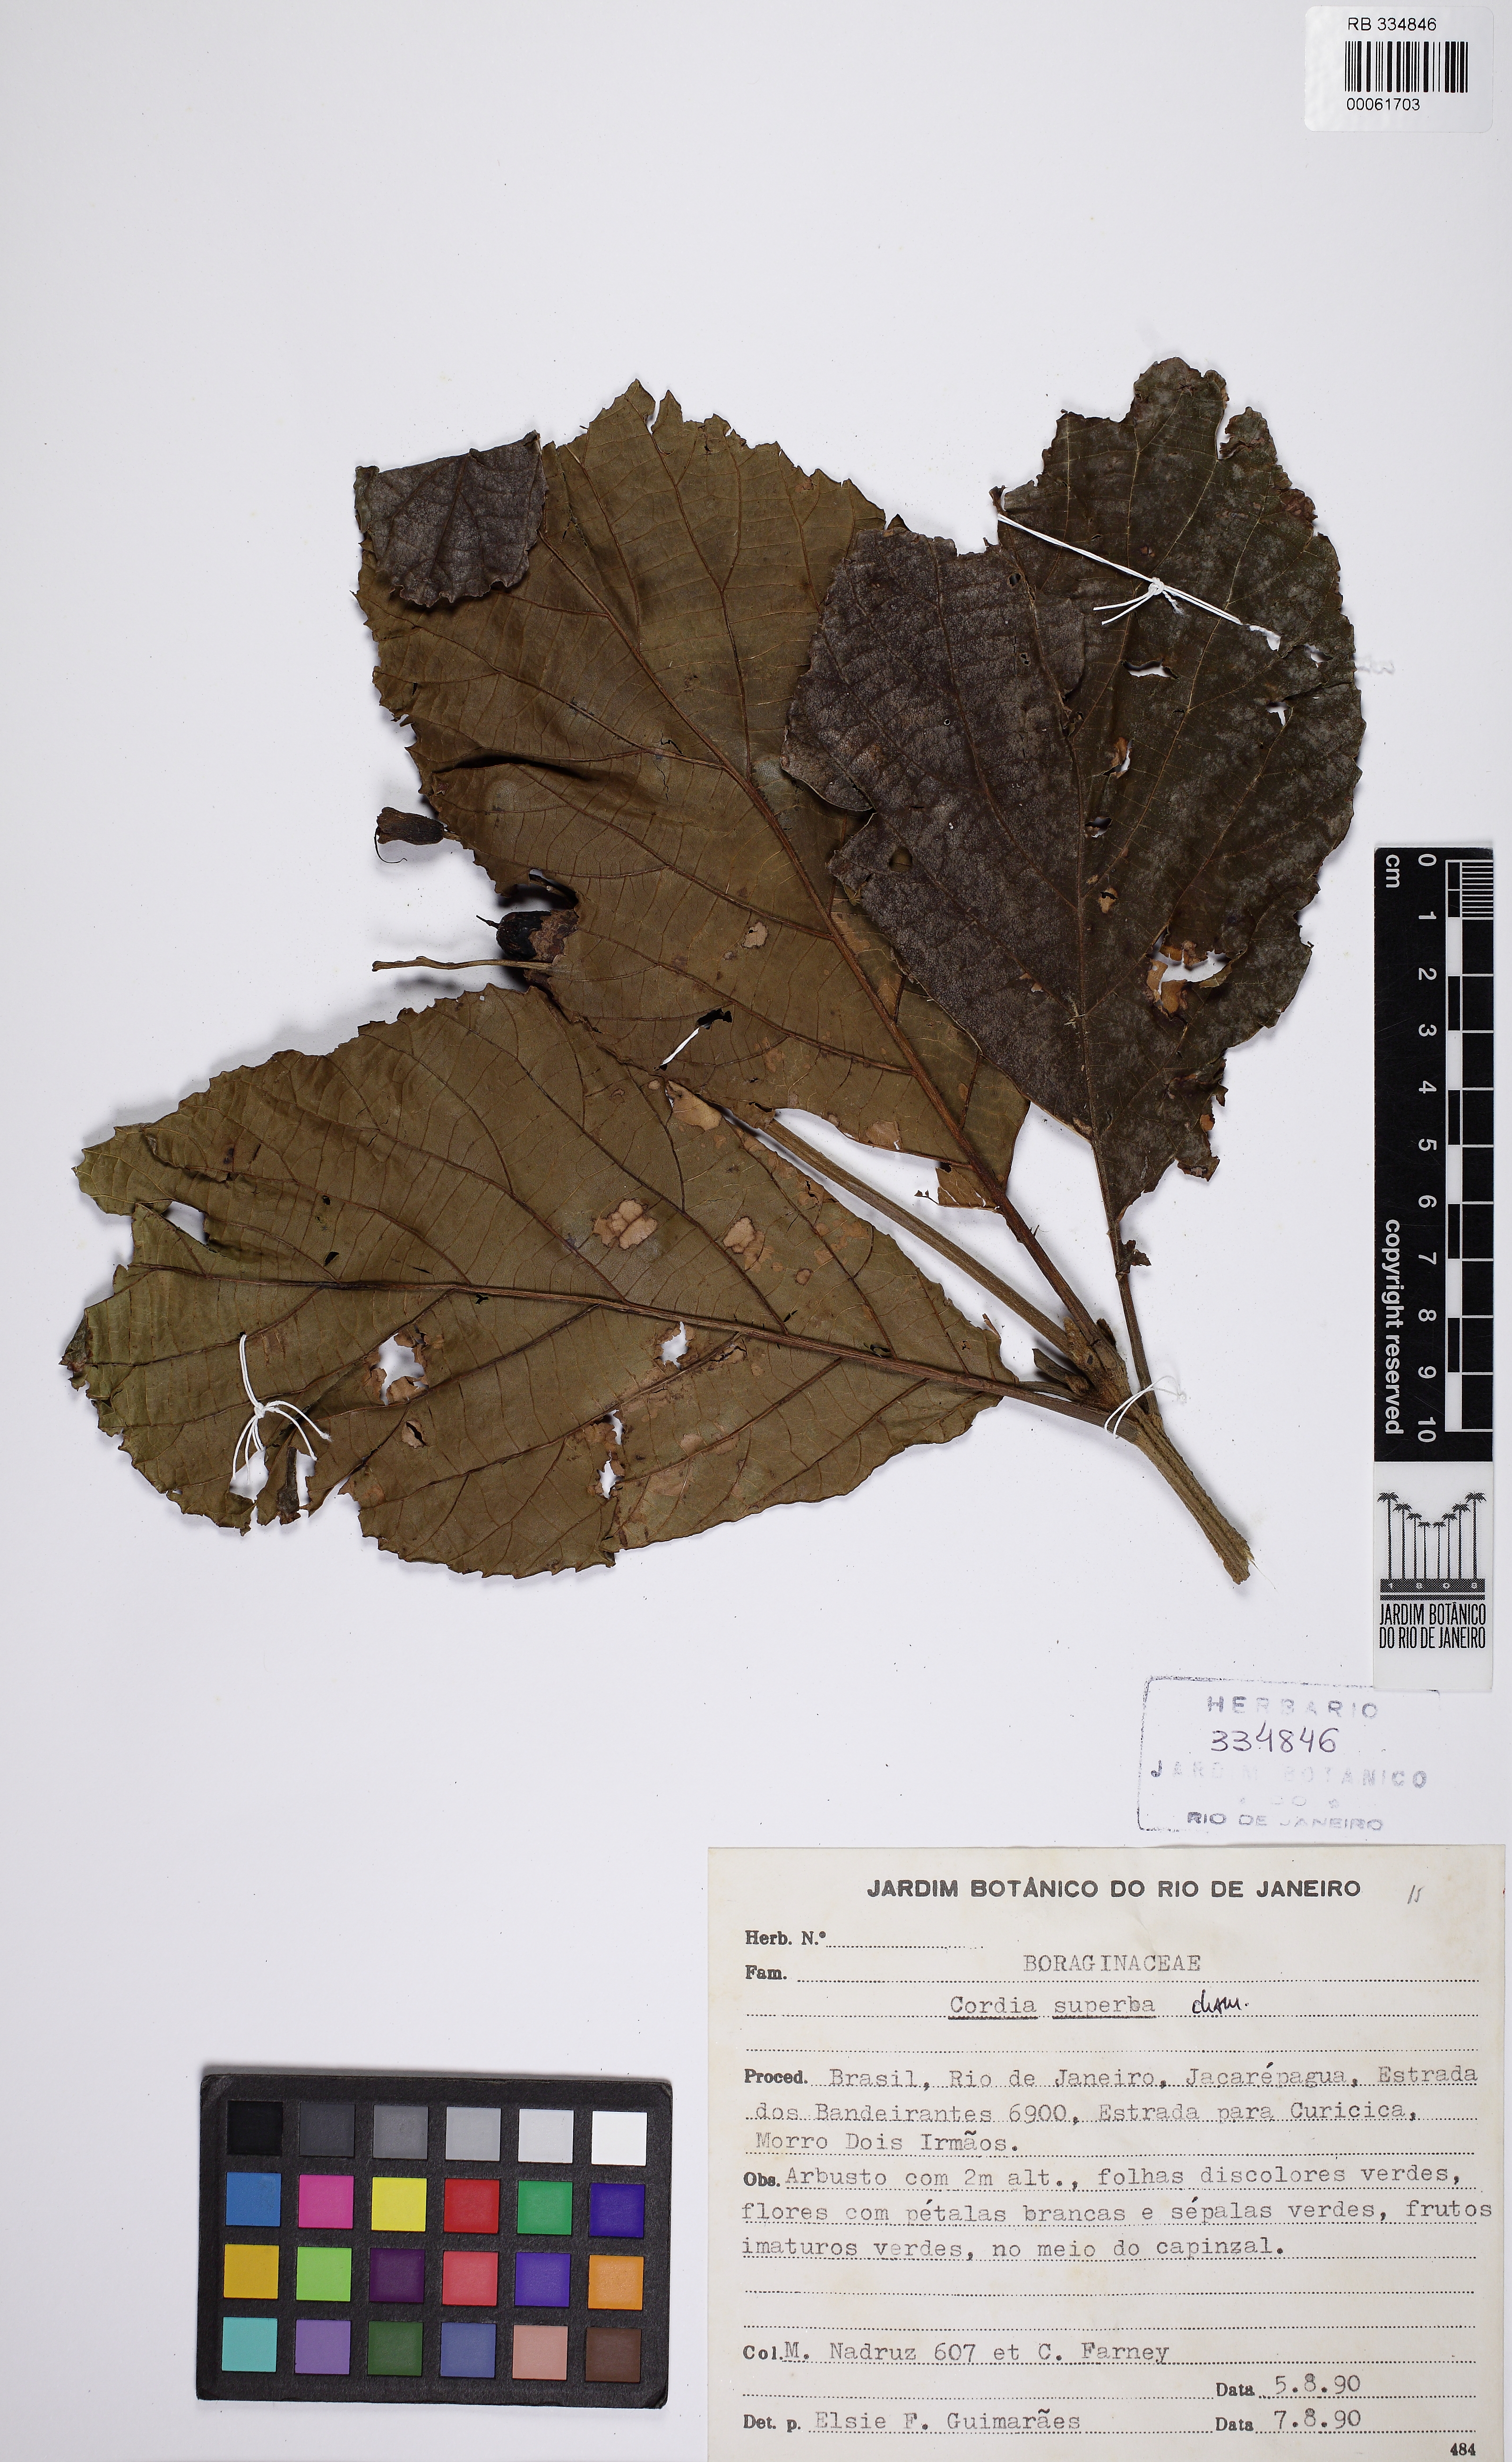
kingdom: Plantae
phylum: Tracheophyta
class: Magnoliopsida
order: Boraginales
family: Cordiaceae
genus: Cordia
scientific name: Cordia superba
